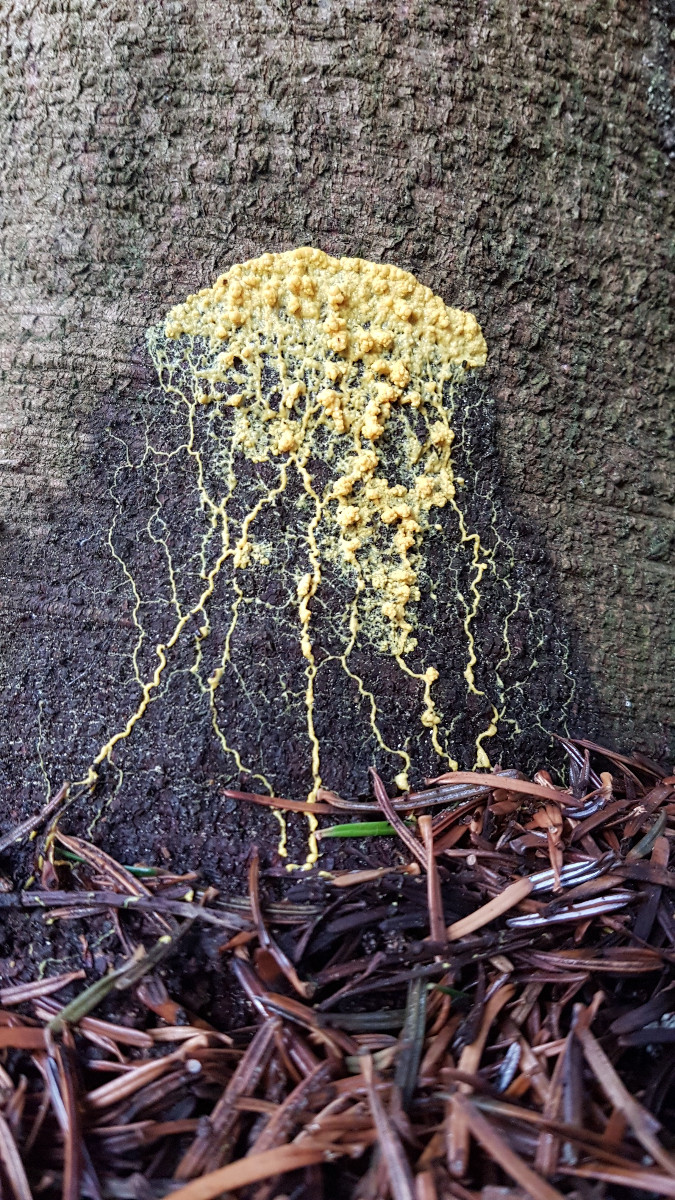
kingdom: Protozoa
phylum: Mycetozoa
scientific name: Mycetozoa
